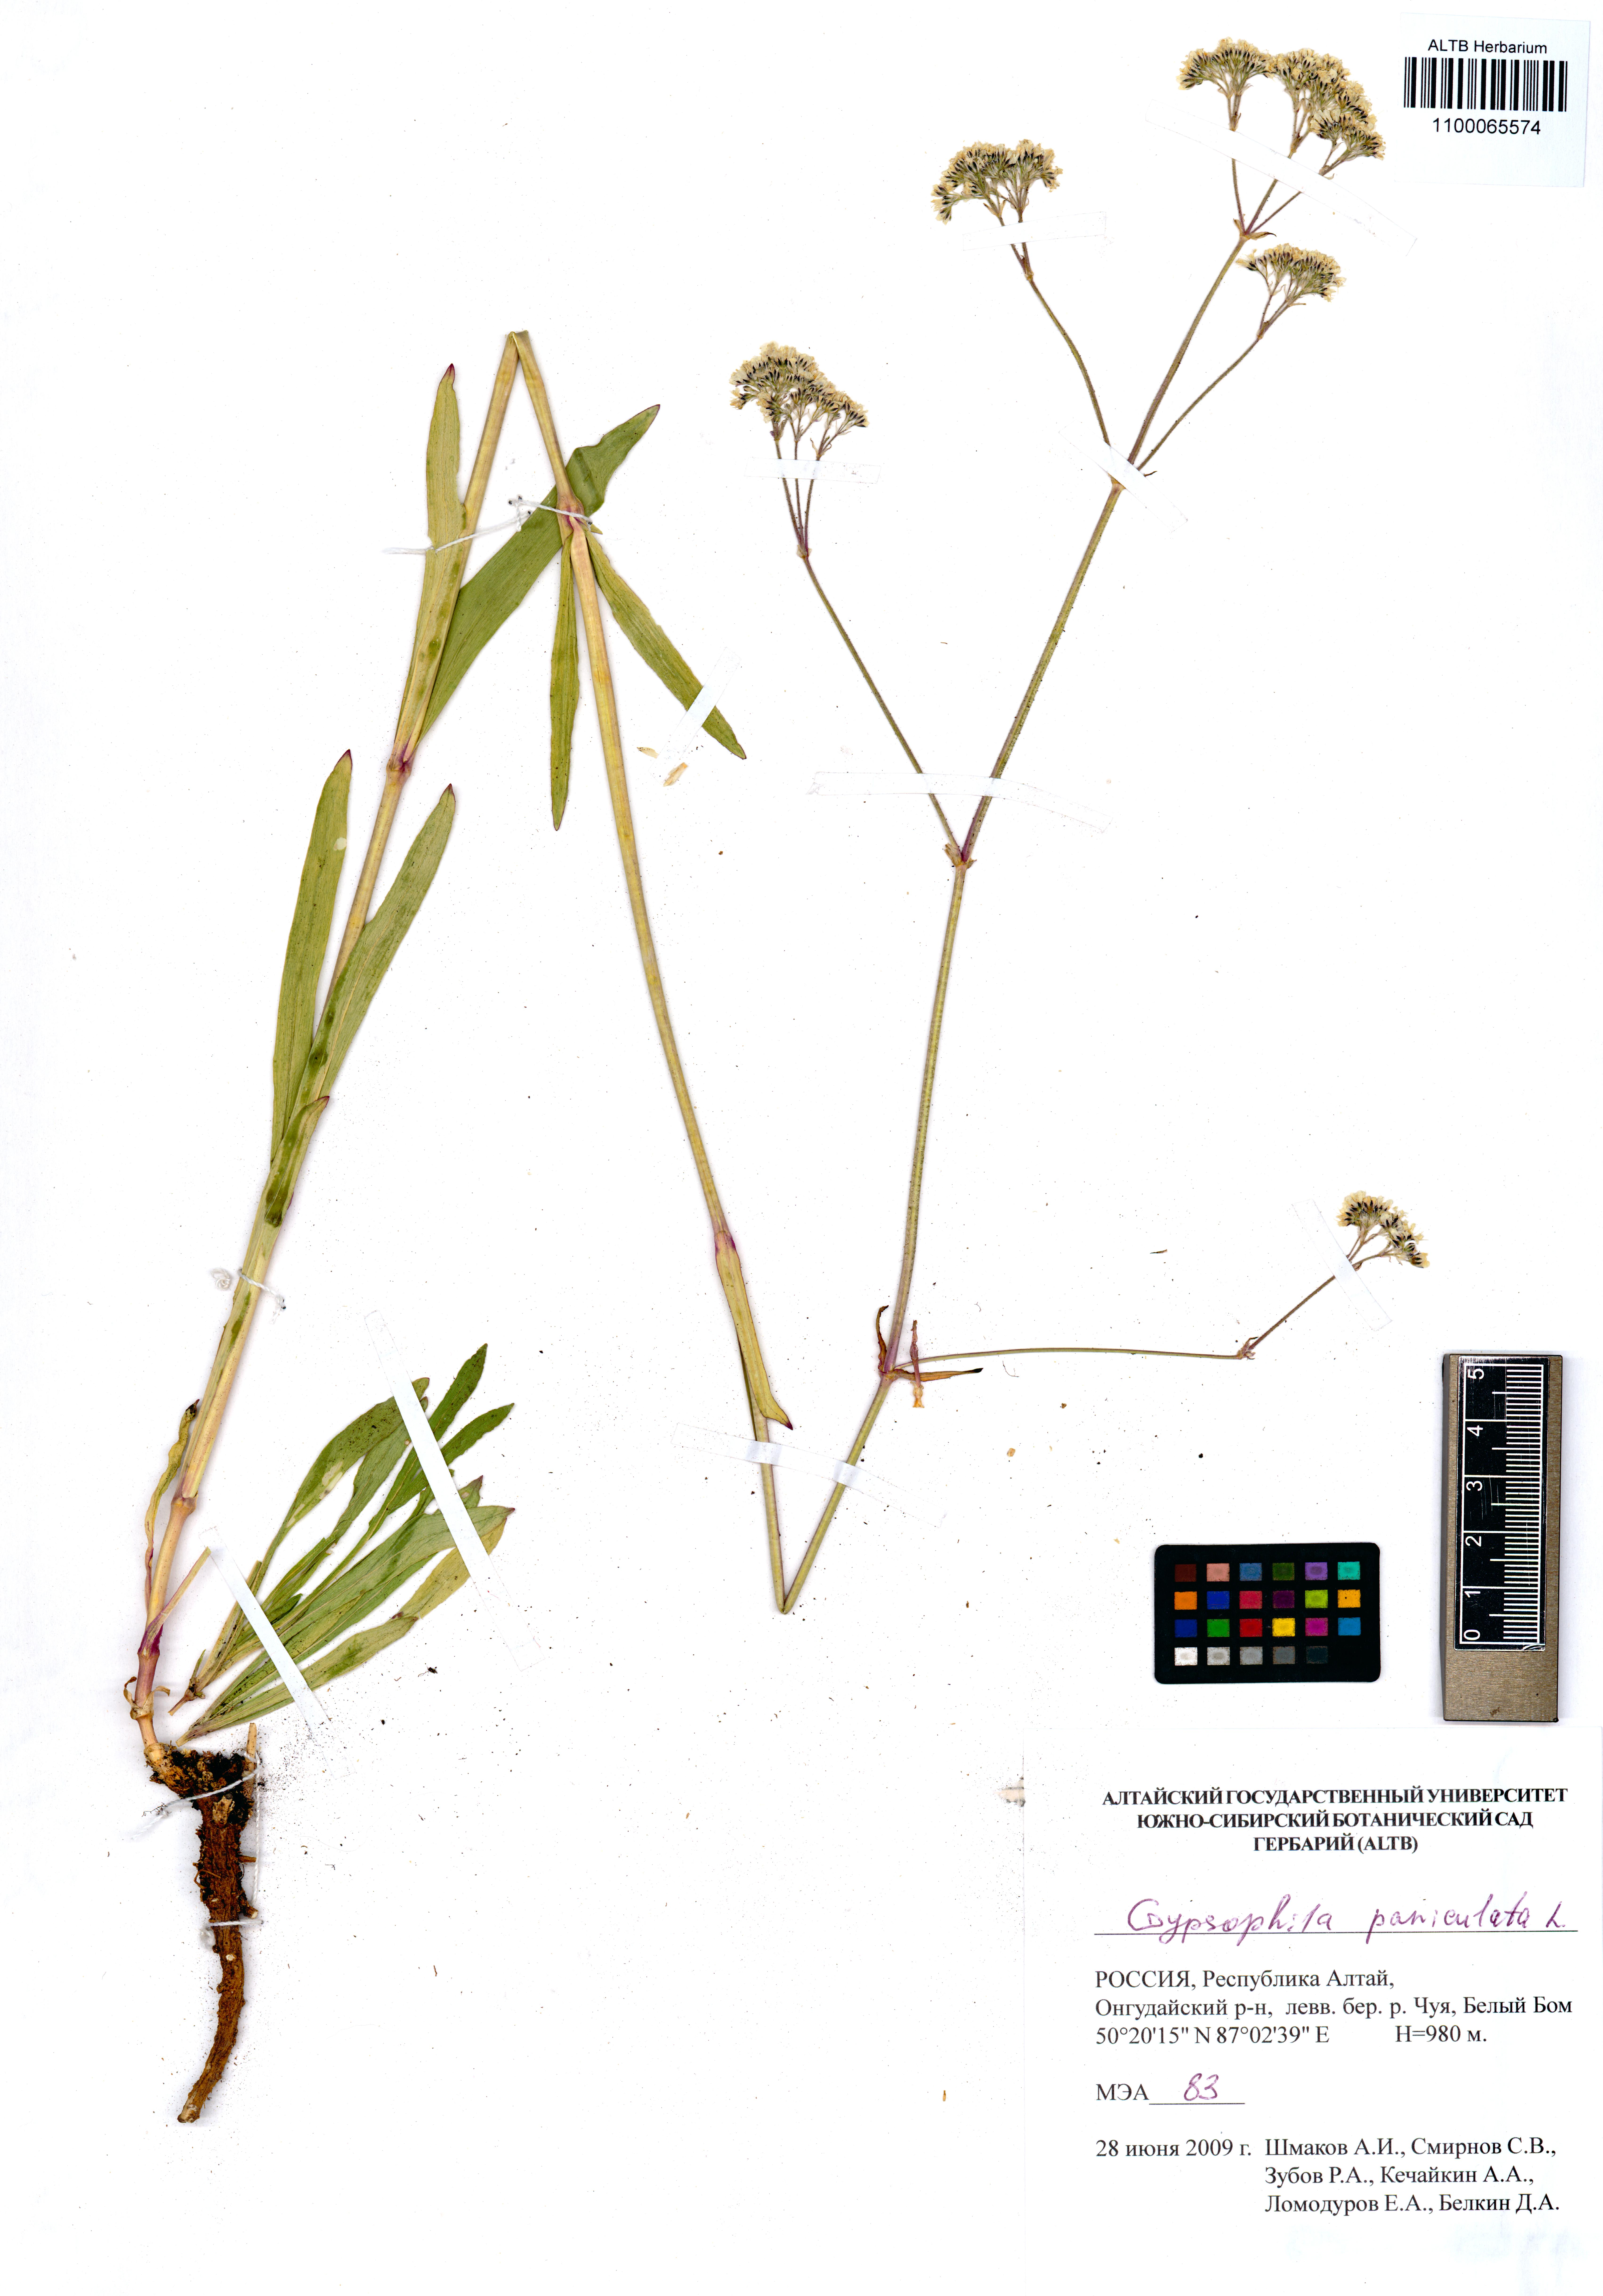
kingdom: Plantae
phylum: Tracheophyta
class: Magnoliopsida
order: Caryophyllales
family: Caryophyllaceae
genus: Gypsophila
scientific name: Gypsophila paniculata
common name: Baby's-breath
